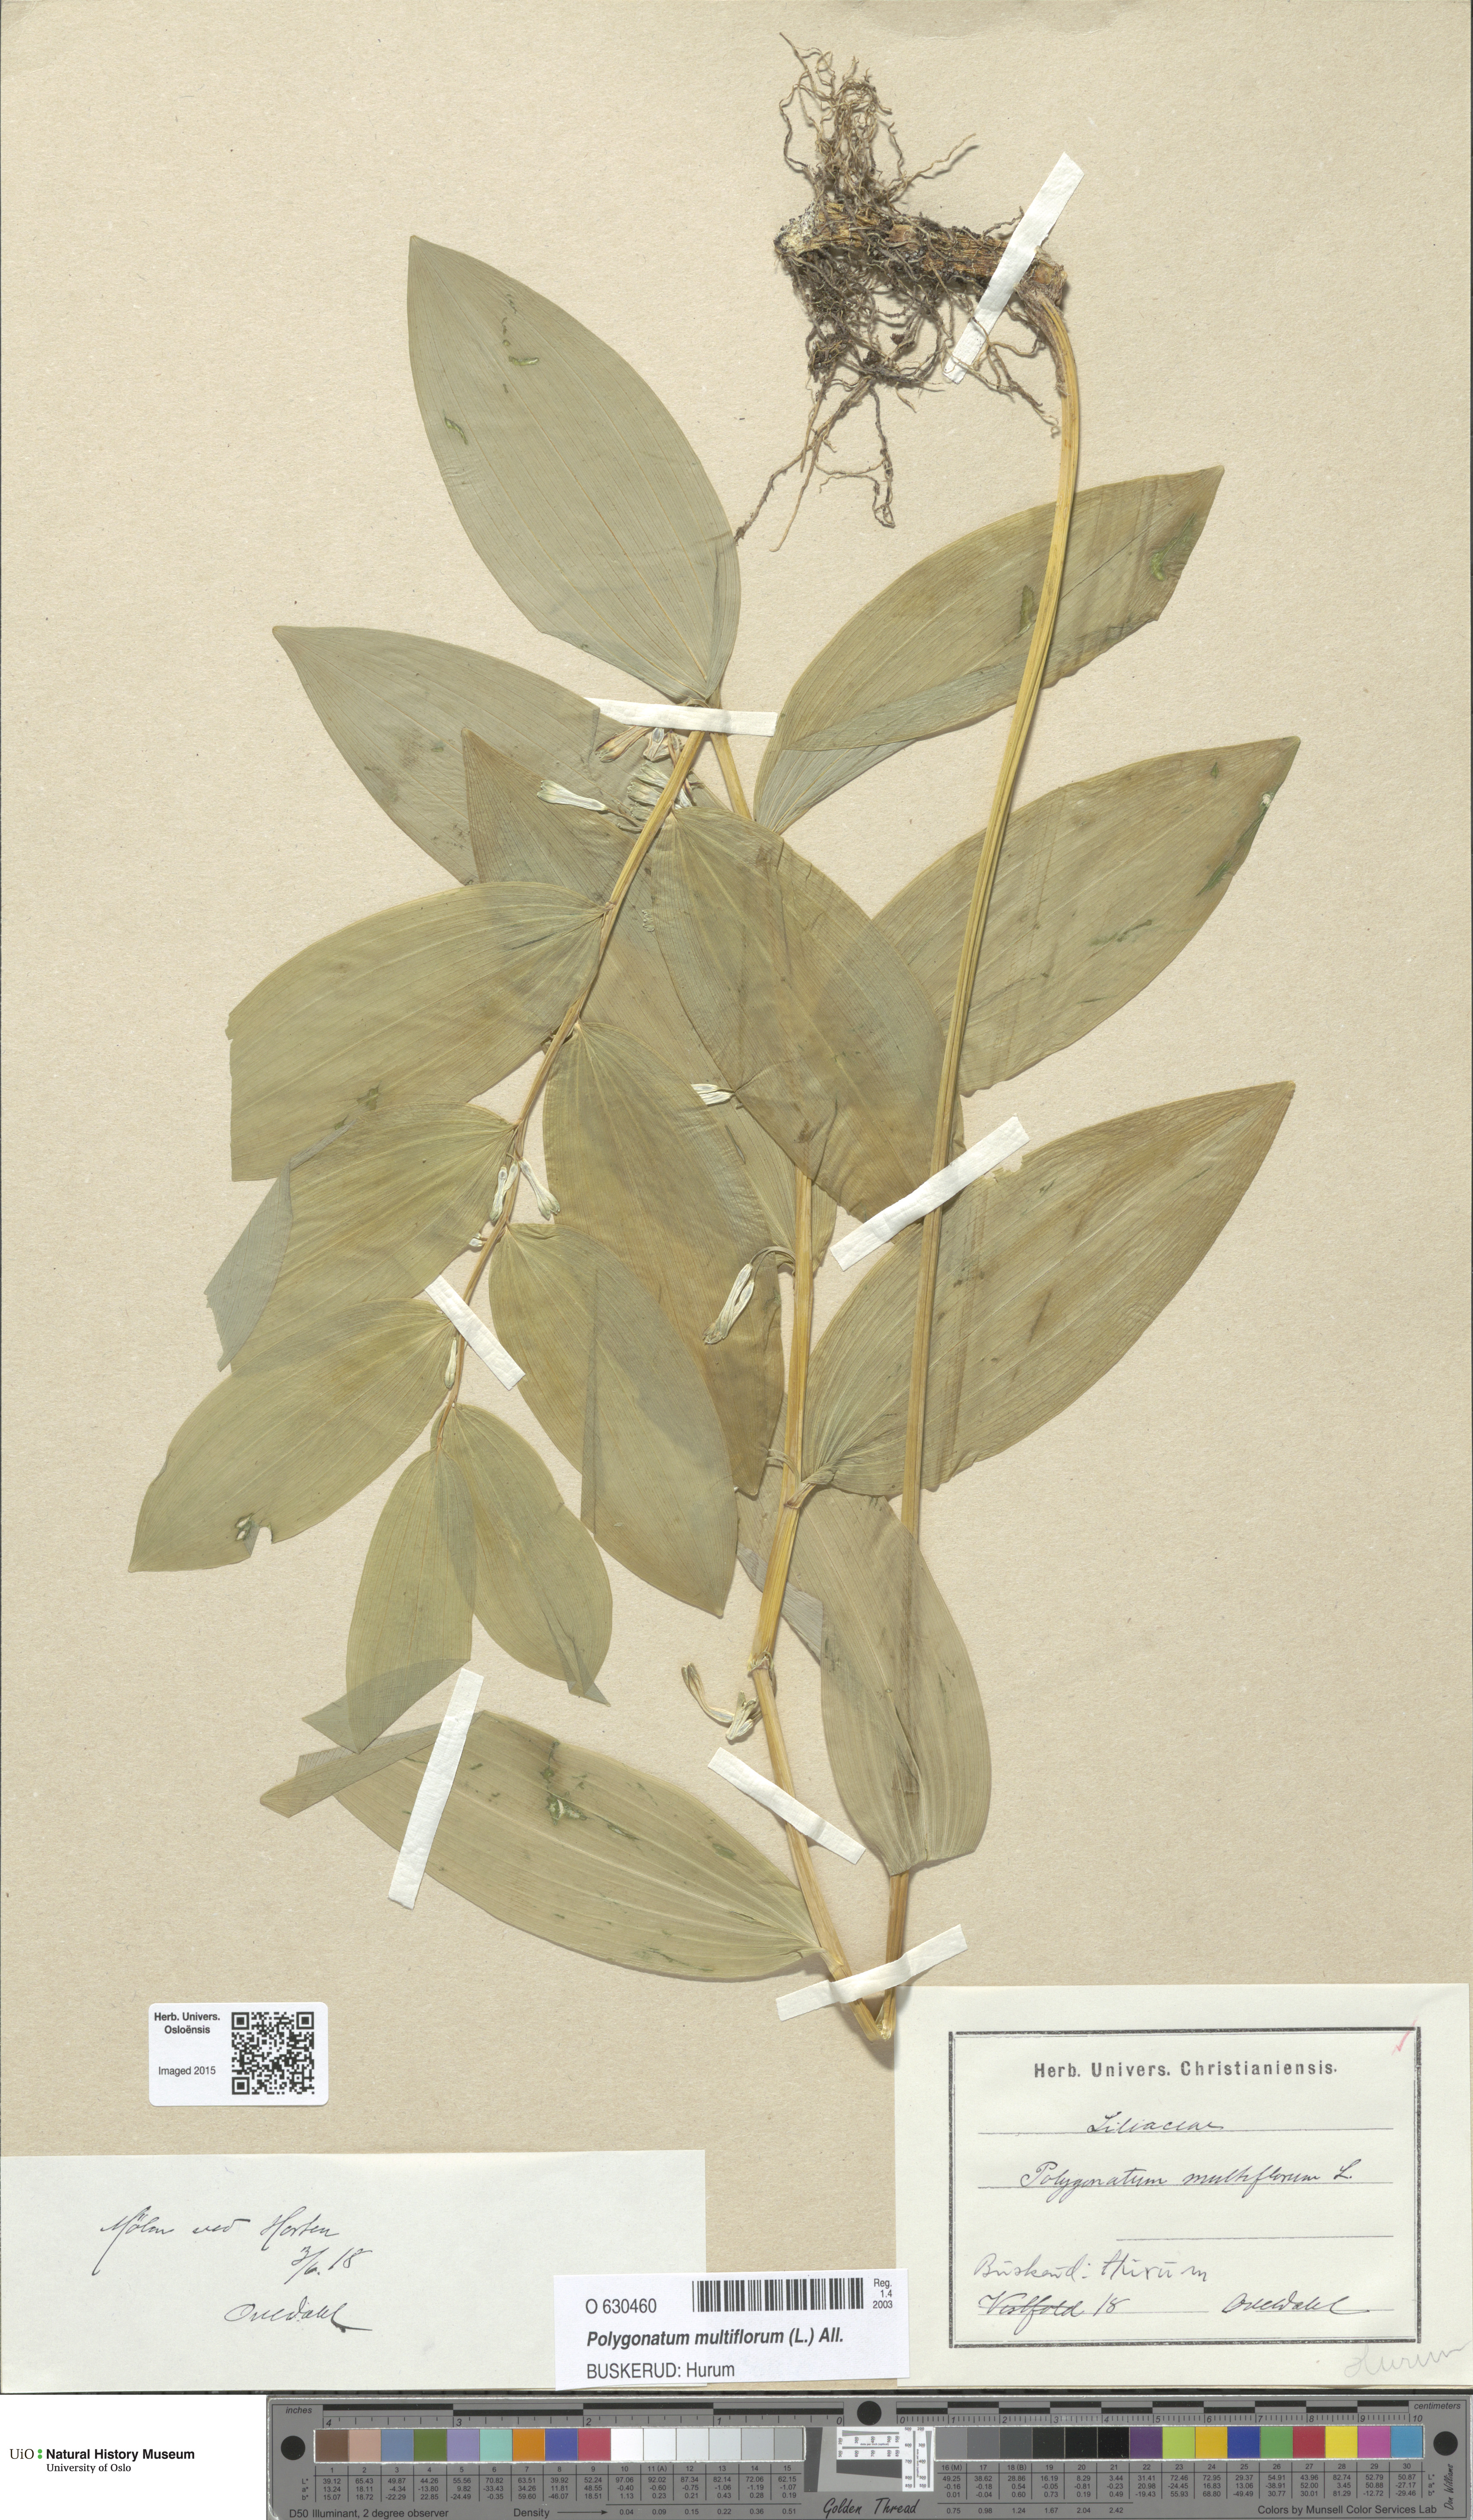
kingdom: Plantae
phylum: Tracheophyta
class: Liliopsida
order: Asparagales
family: Asparagaceae
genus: Polygonatum
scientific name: Polygonatum multiflorum
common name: Solomon's-seal
